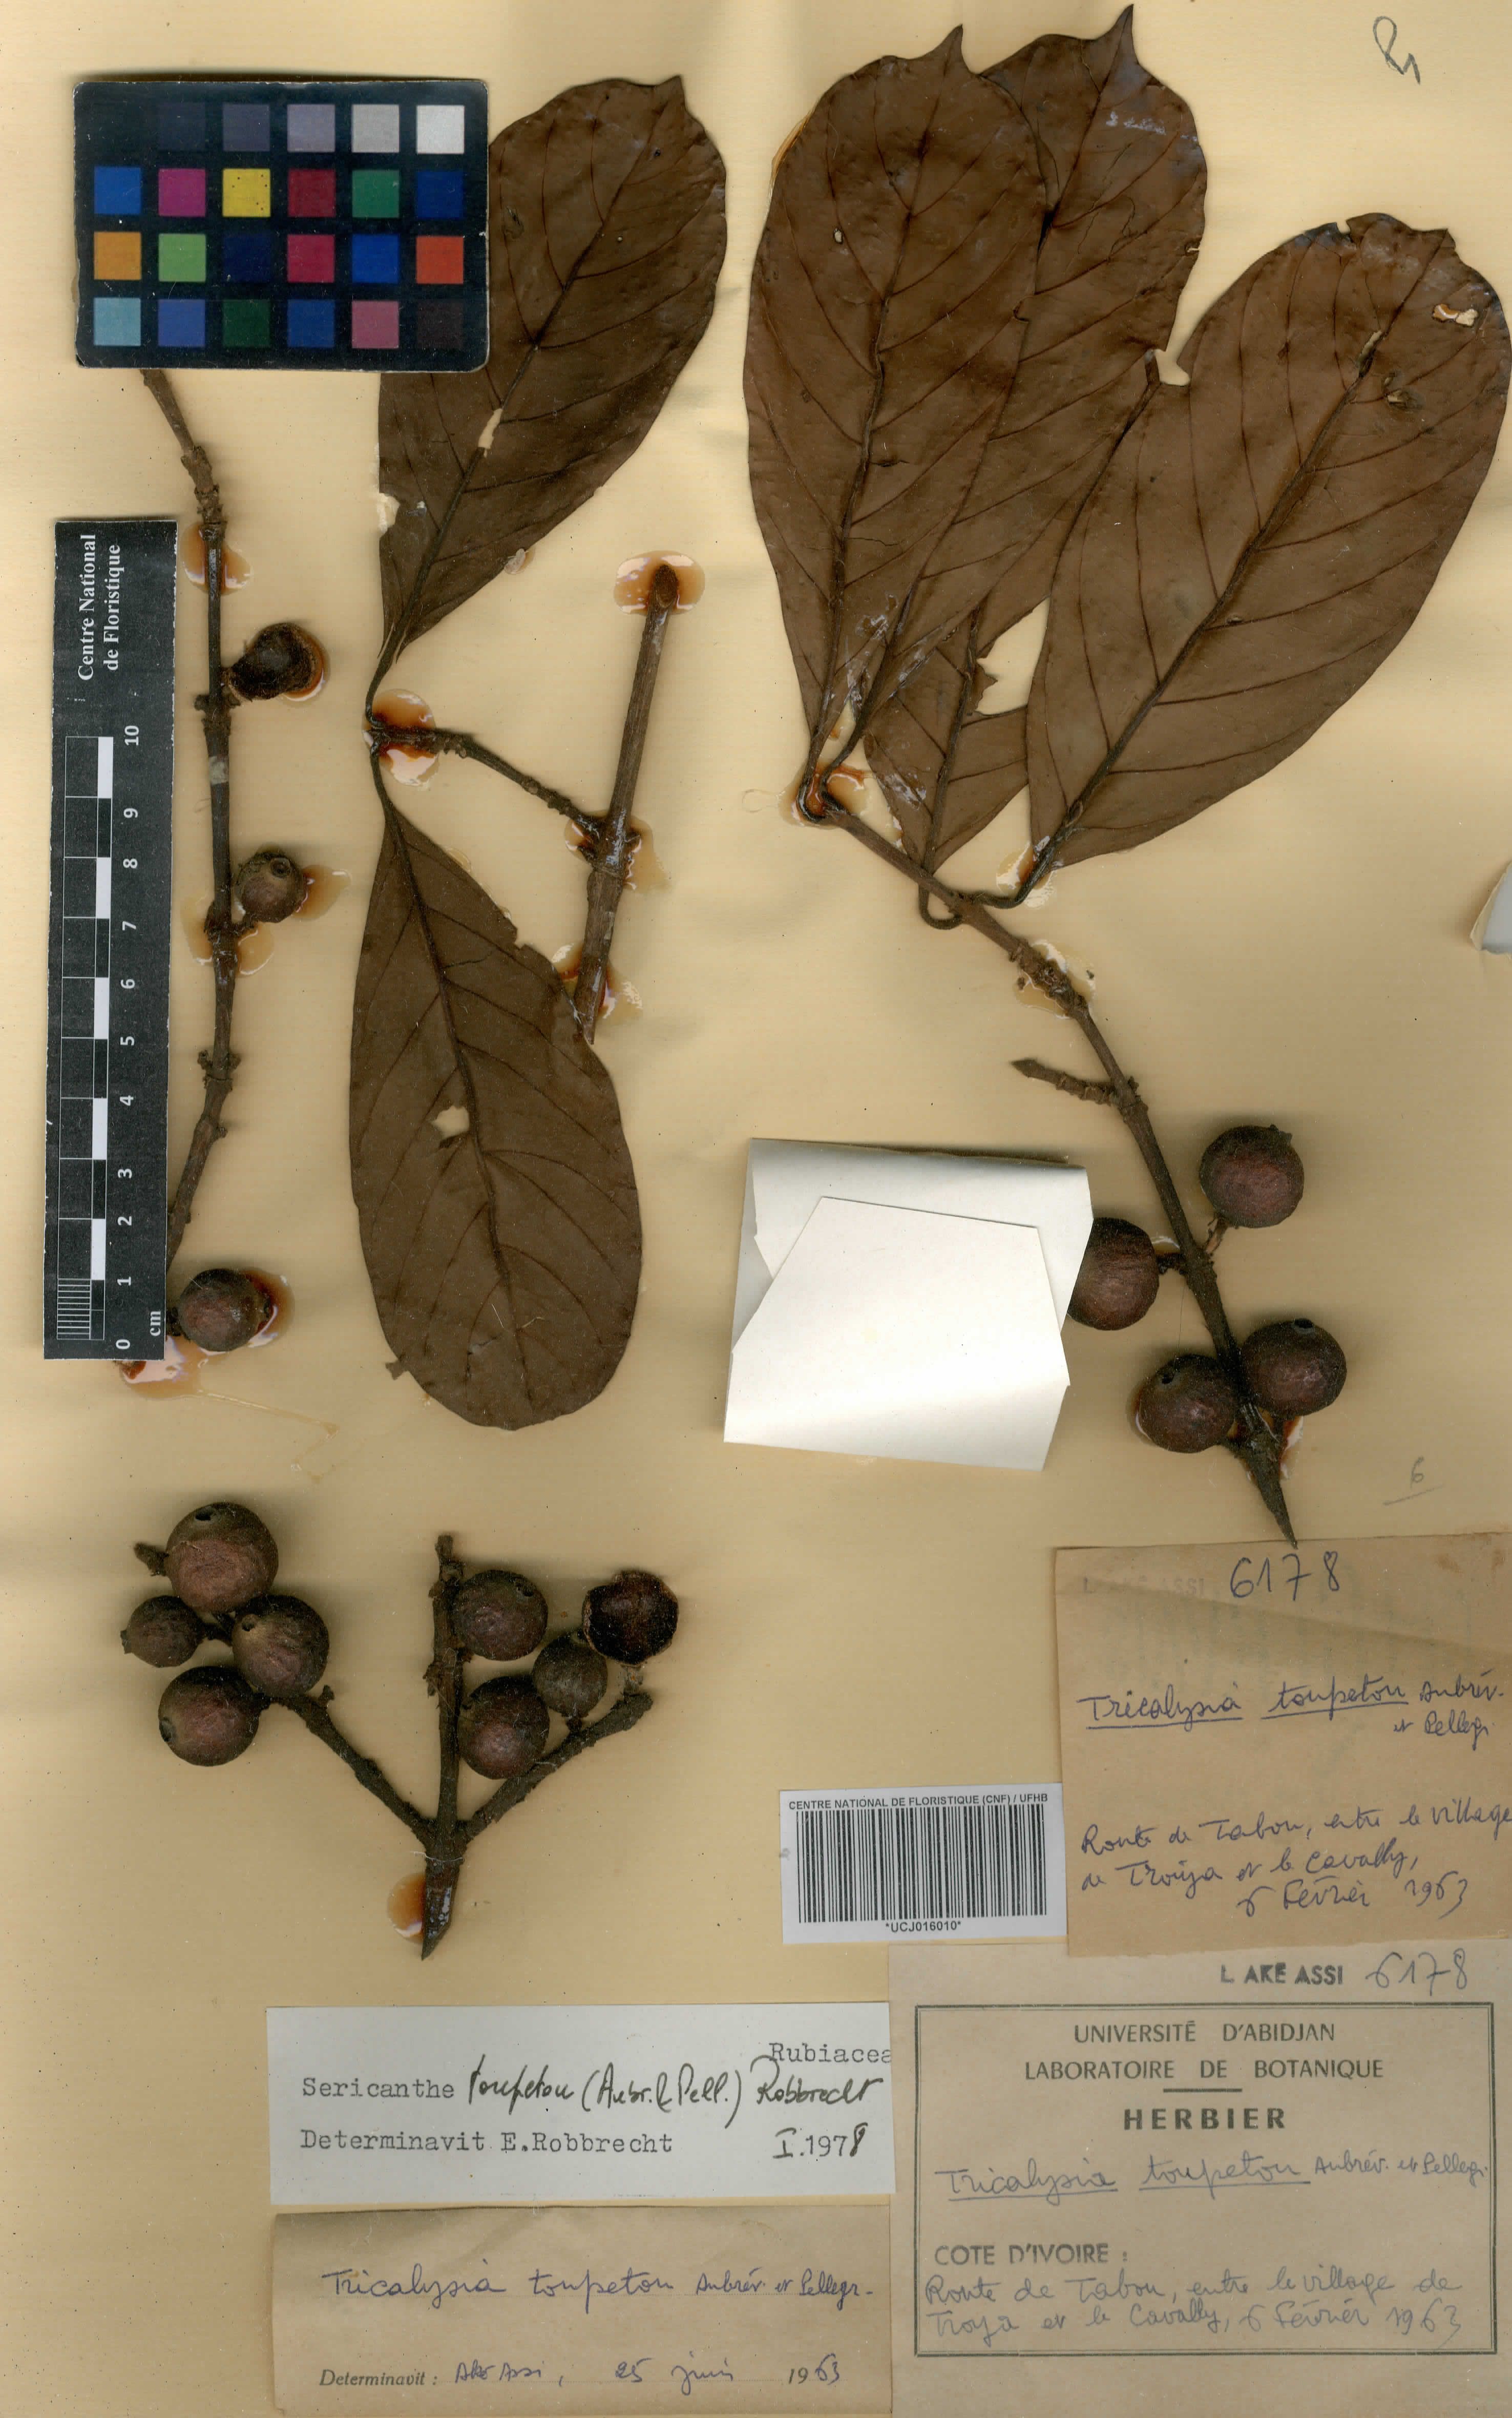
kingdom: Plantae
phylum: Tracheophyta
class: Magnoliopsida
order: Gentianales
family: Rubiaceae
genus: Sericanthe
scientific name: Sericanthe toupetou
